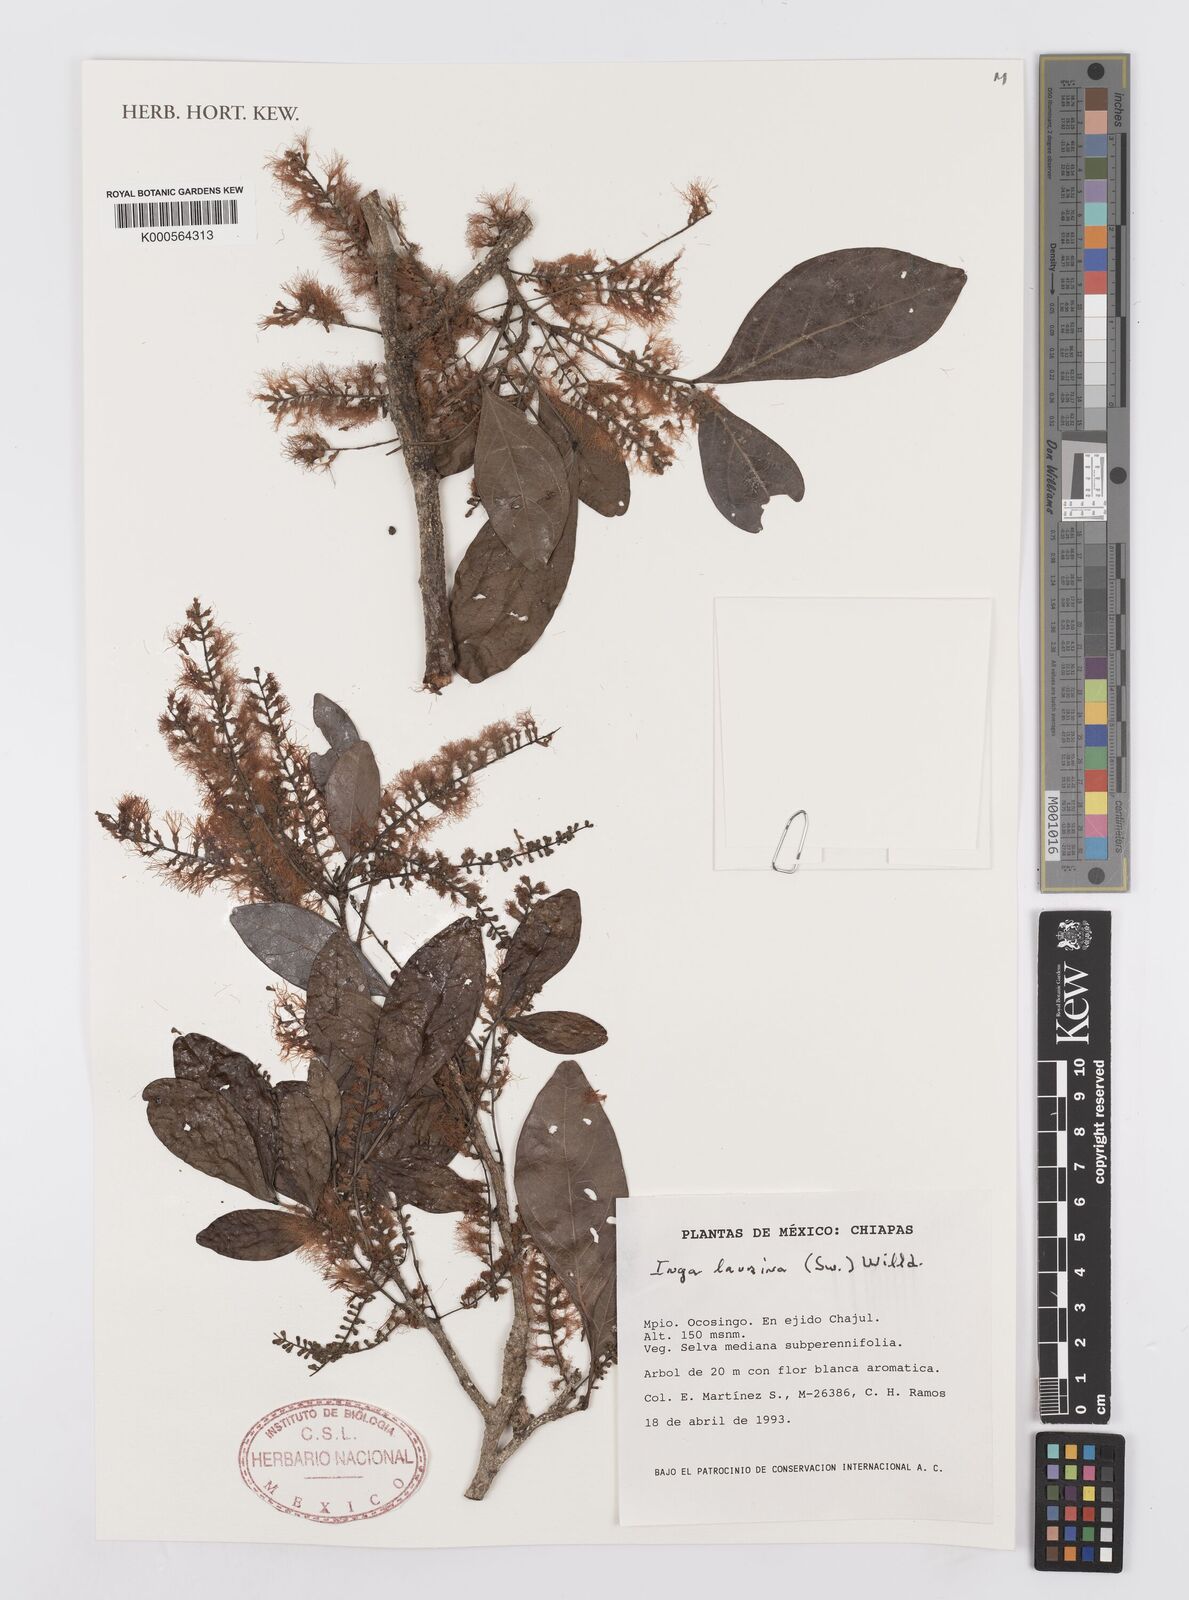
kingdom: Plantae
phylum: Tracheophyta
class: Magnoliopsida
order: Fabales
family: Fabaceae
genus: Inga
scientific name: Inga laurina
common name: Red wood
